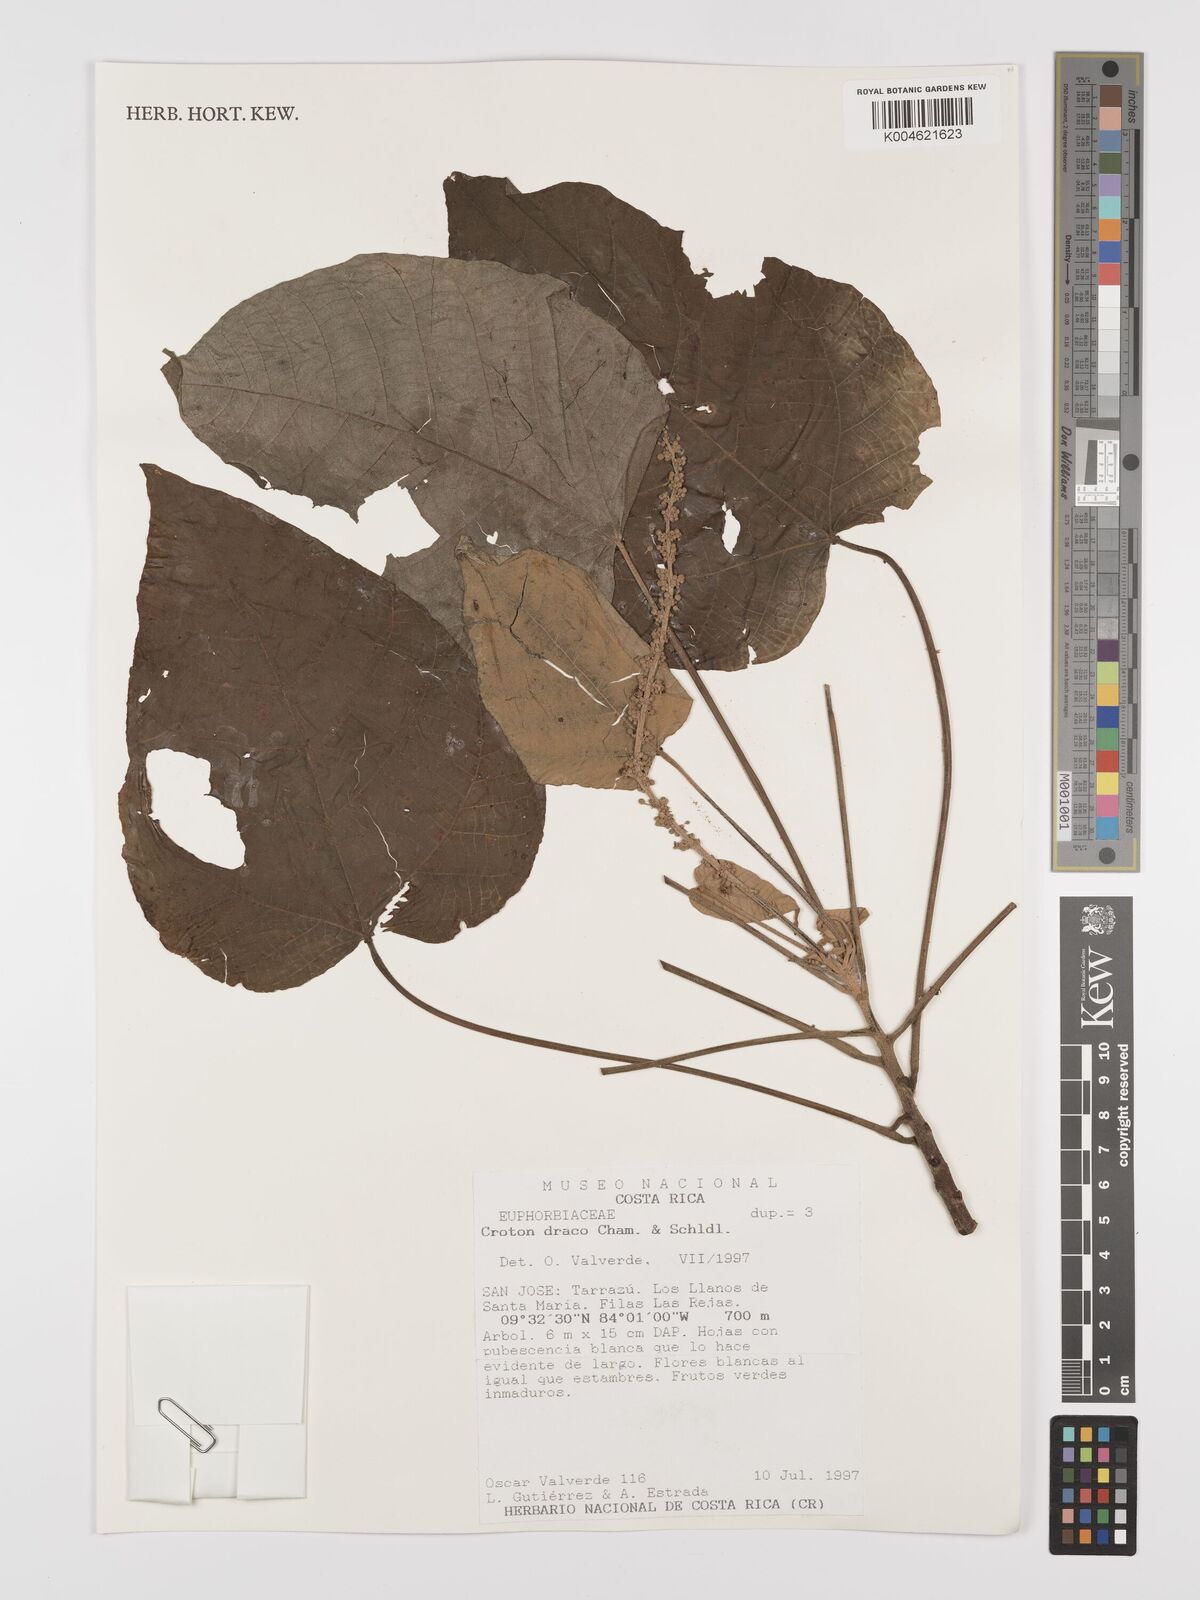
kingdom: Plantae
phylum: Tracheophyta
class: Magnoliopsida
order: Malpighiales
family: Euphorbiaceae
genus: Croton
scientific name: Croton draco
